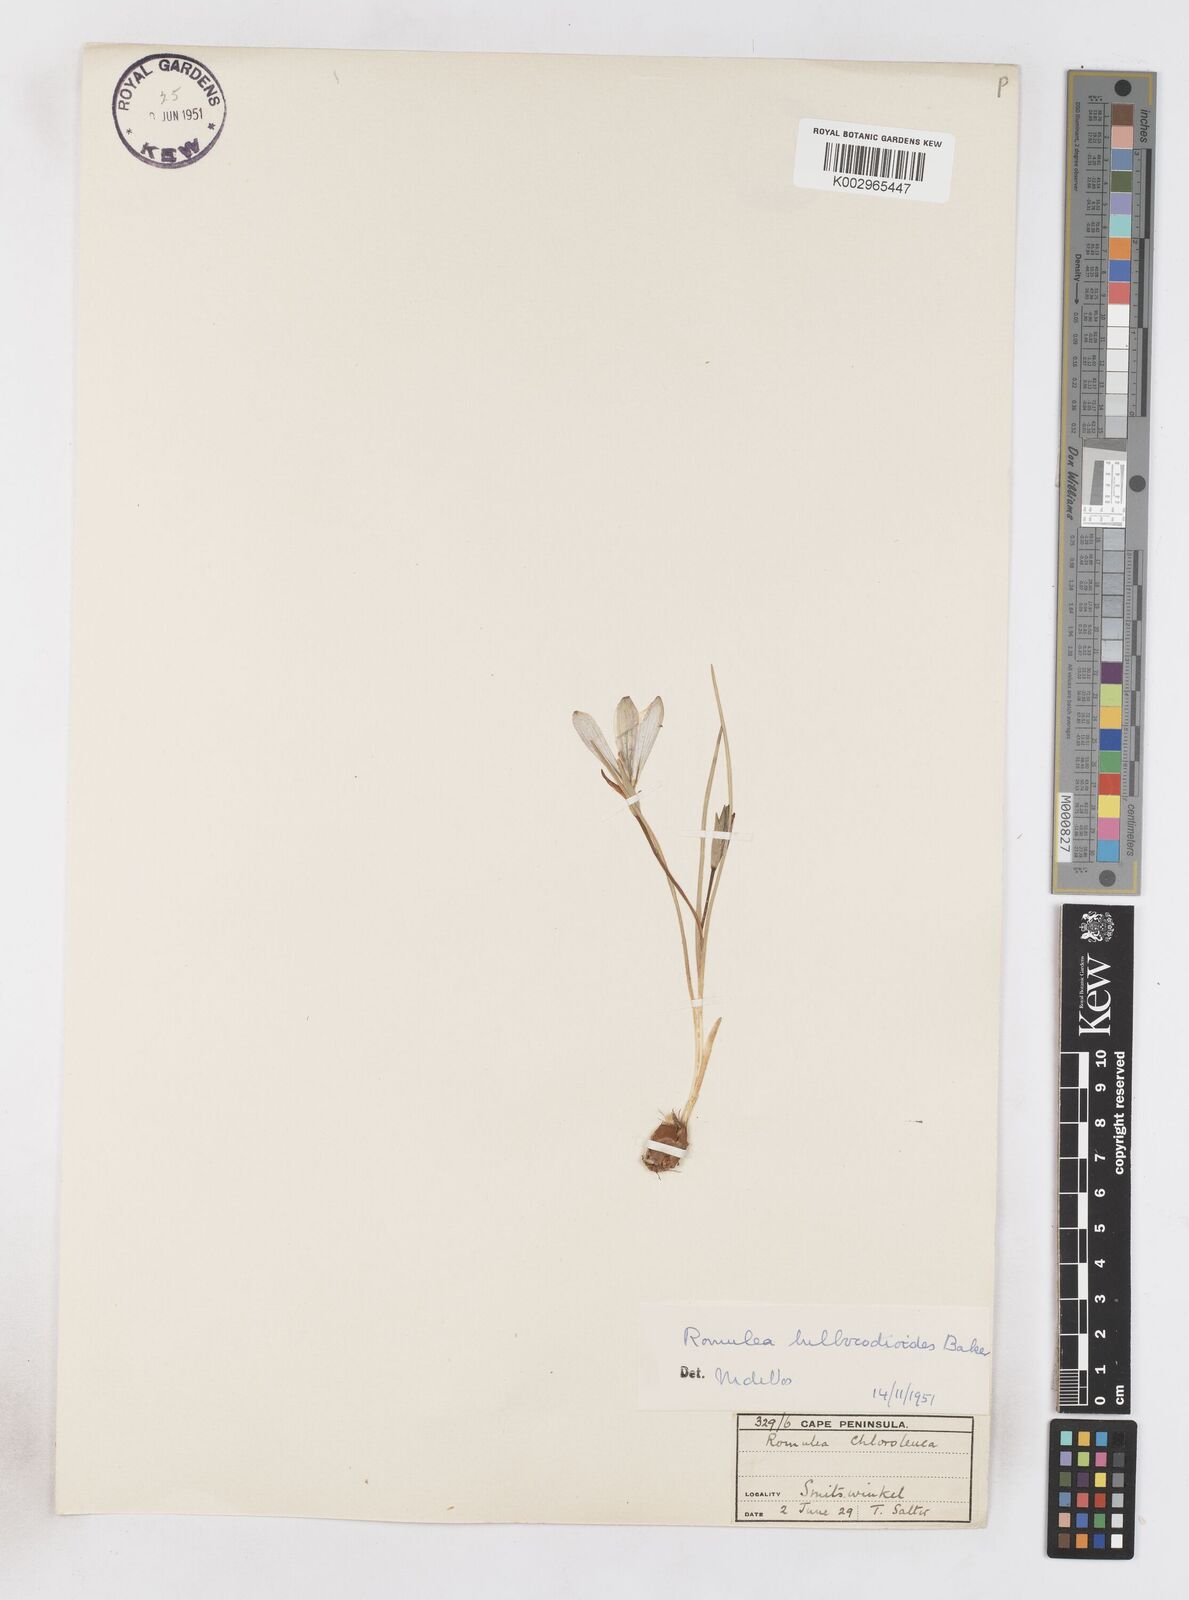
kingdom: Plantae
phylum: Tracheophyta
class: Liliopsida
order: Asparagales
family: Iridaceae
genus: Romulea
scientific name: Romulea flava
